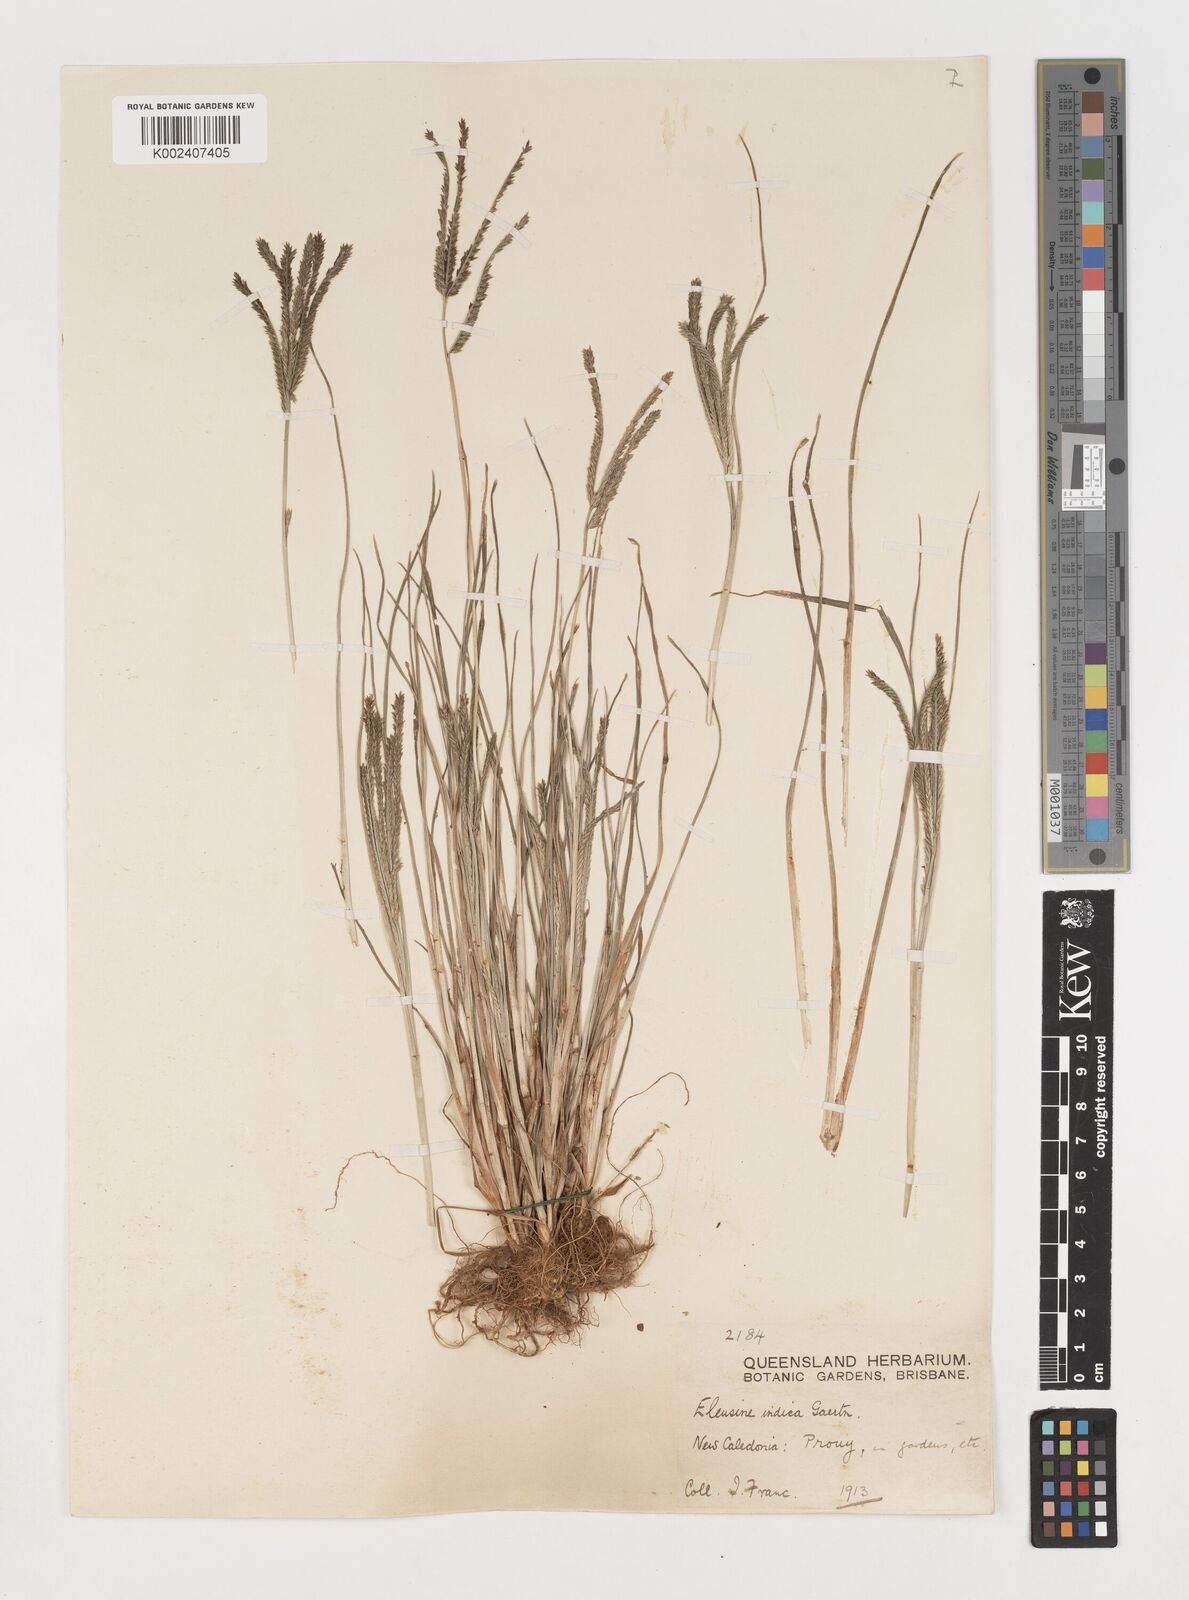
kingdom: Plantae
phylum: Tracheophyta
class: Liliopsida
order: Poales
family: Poaceae
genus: Eleusine
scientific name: Eleusine indica
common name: Yard-grass
